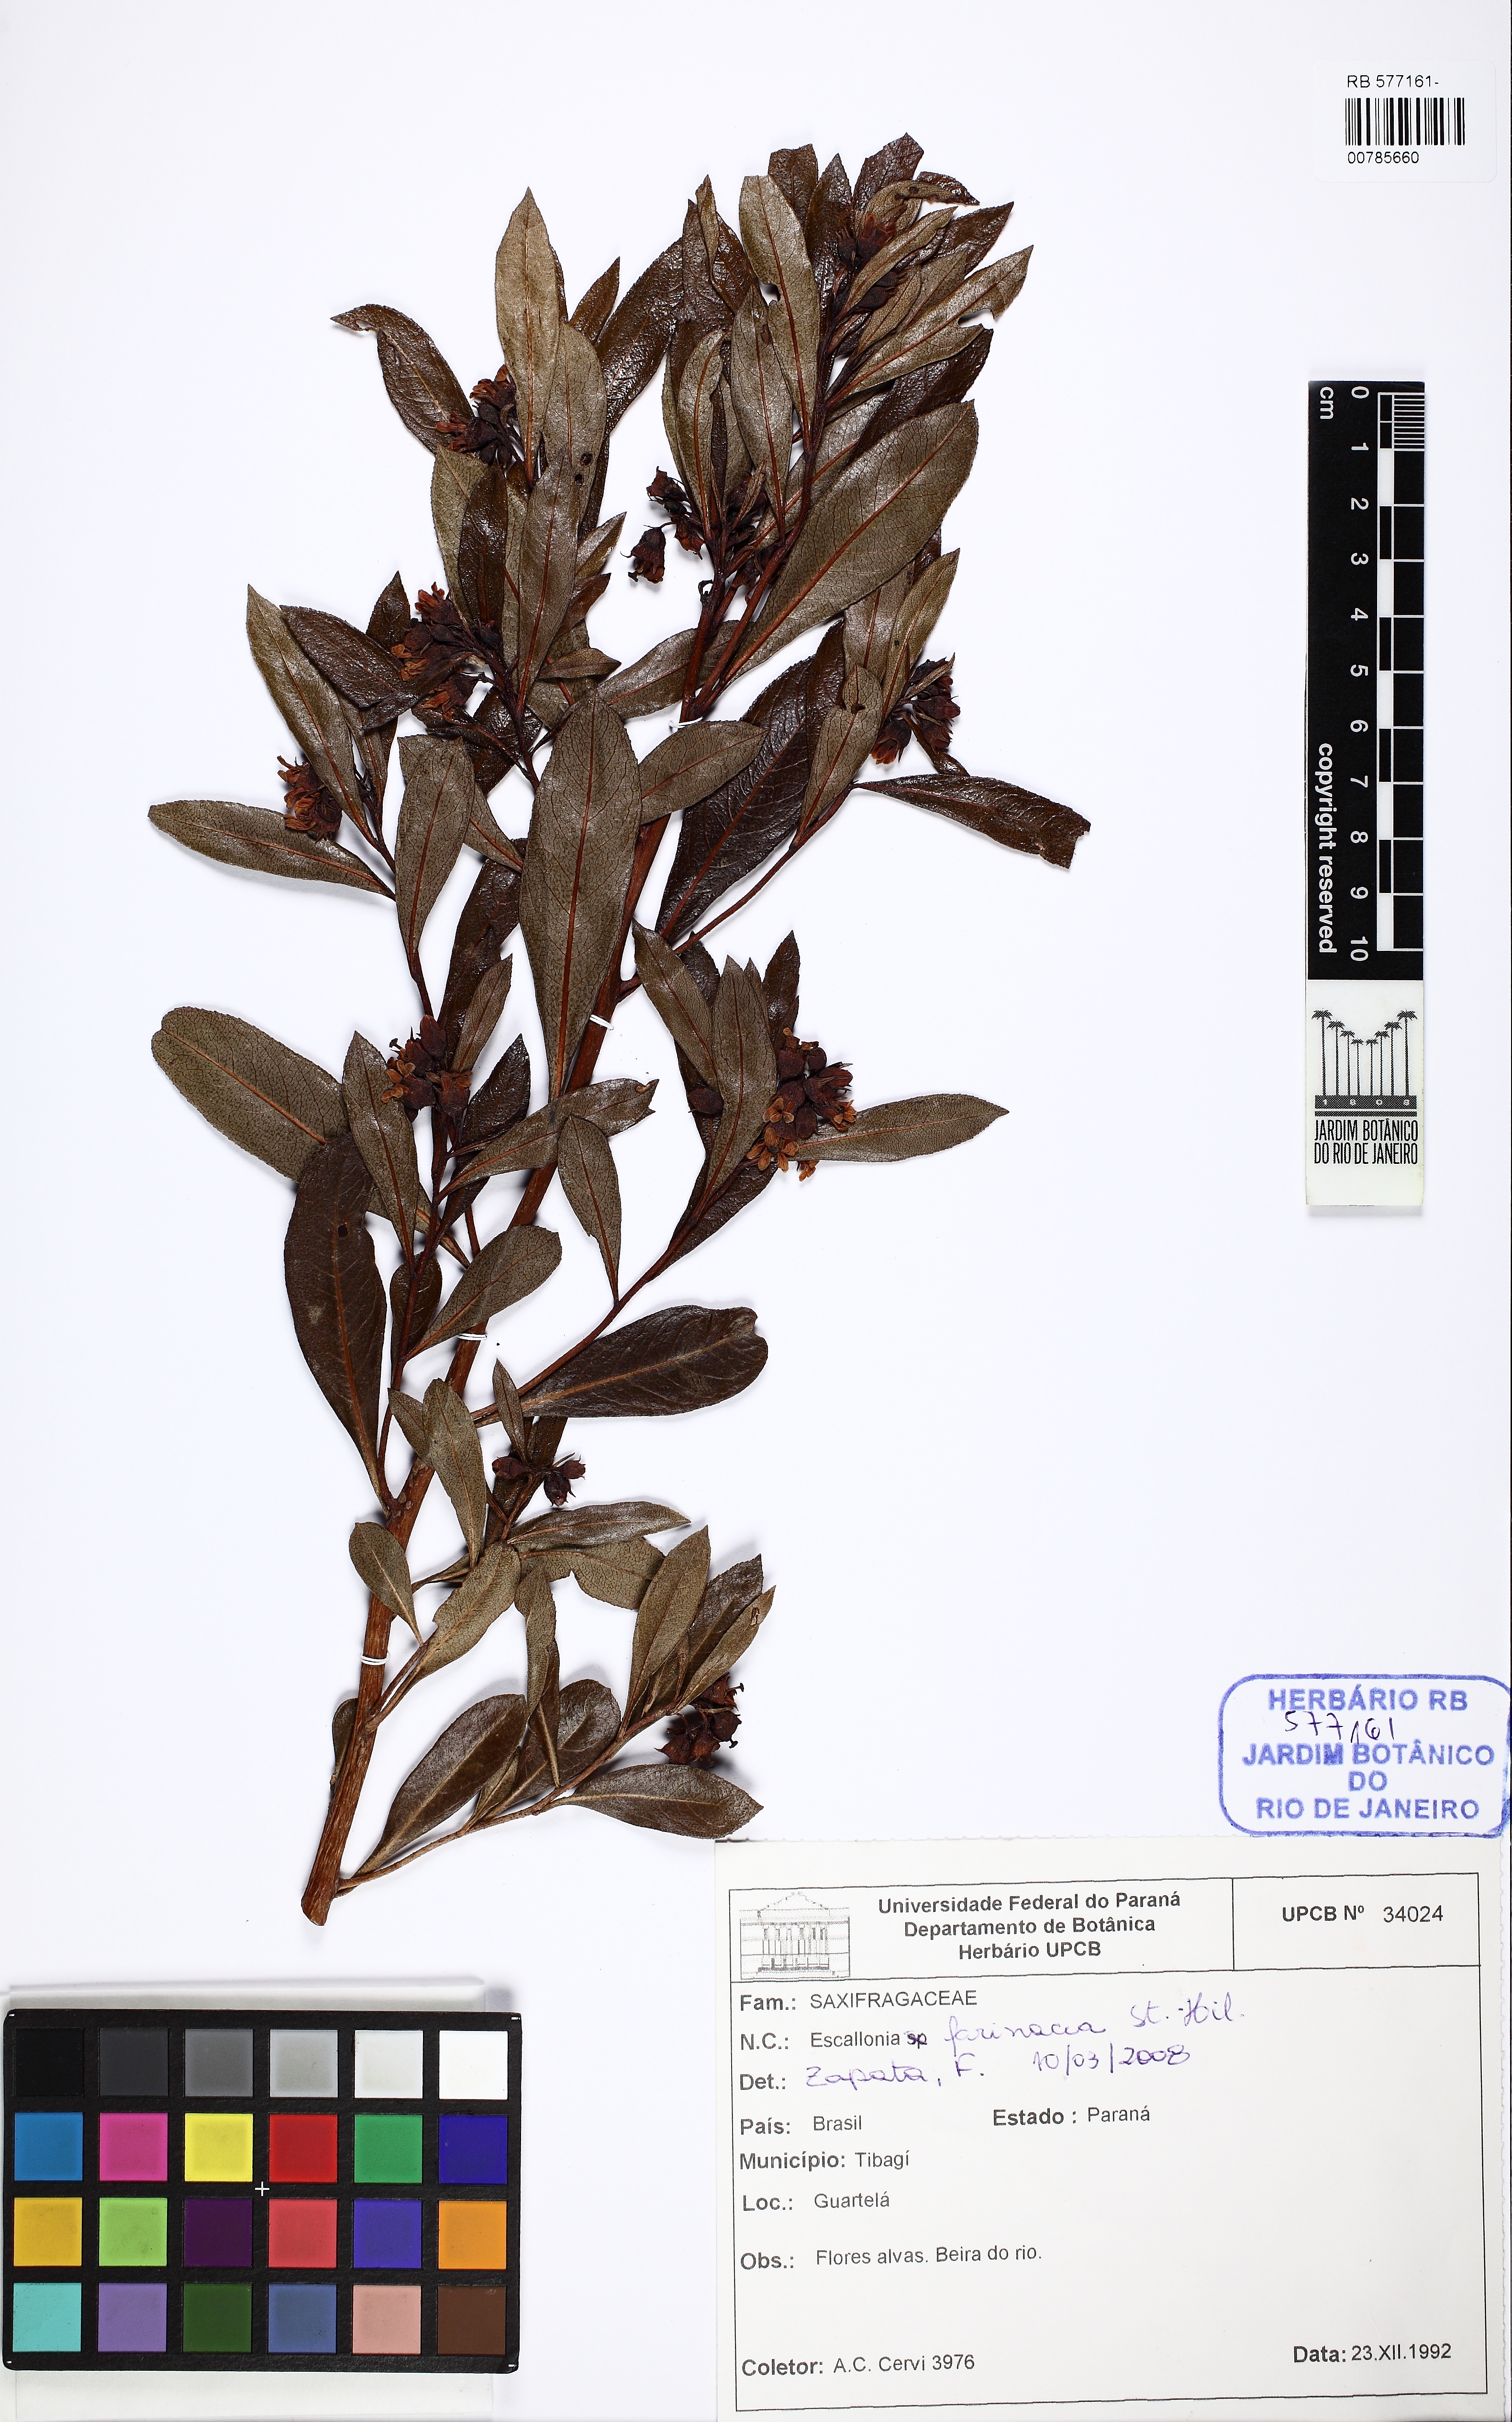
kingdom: Plantae
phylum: Tracheophyta
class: Magnoliopsida
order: Escalloniales
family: Escalloniaceae
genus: Escallonia
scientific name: Escallonia farinacea
